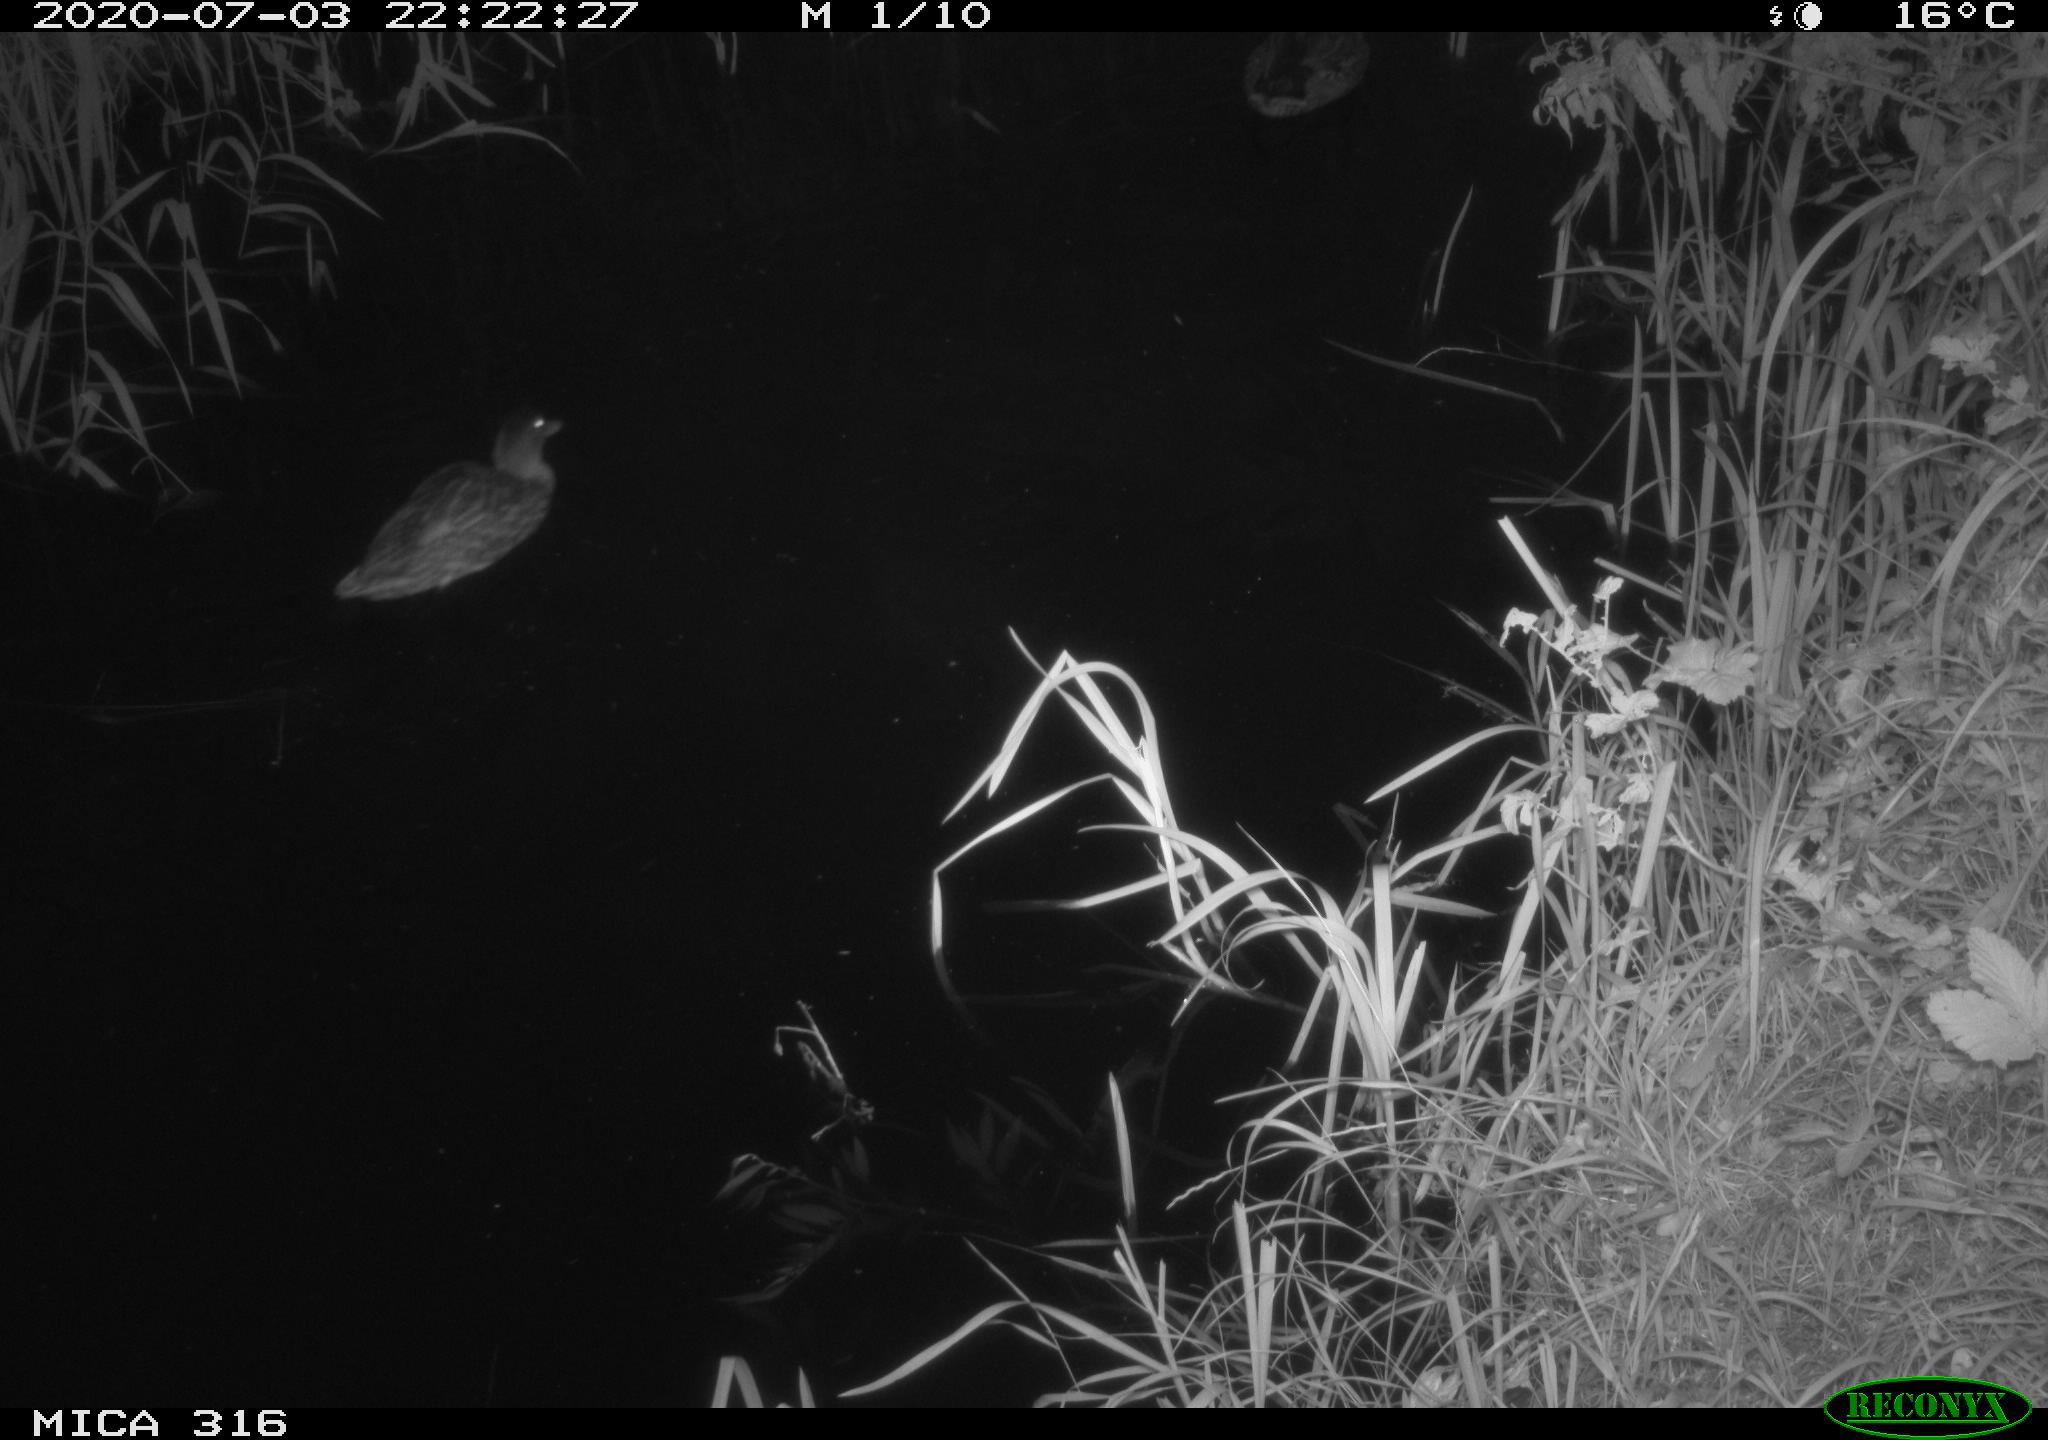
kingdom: Animalia
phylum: Chordata
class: Aves
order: Anseriformes
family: Anatidae
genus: Anas
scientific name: Anas platyrhynchos
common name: Mallard
